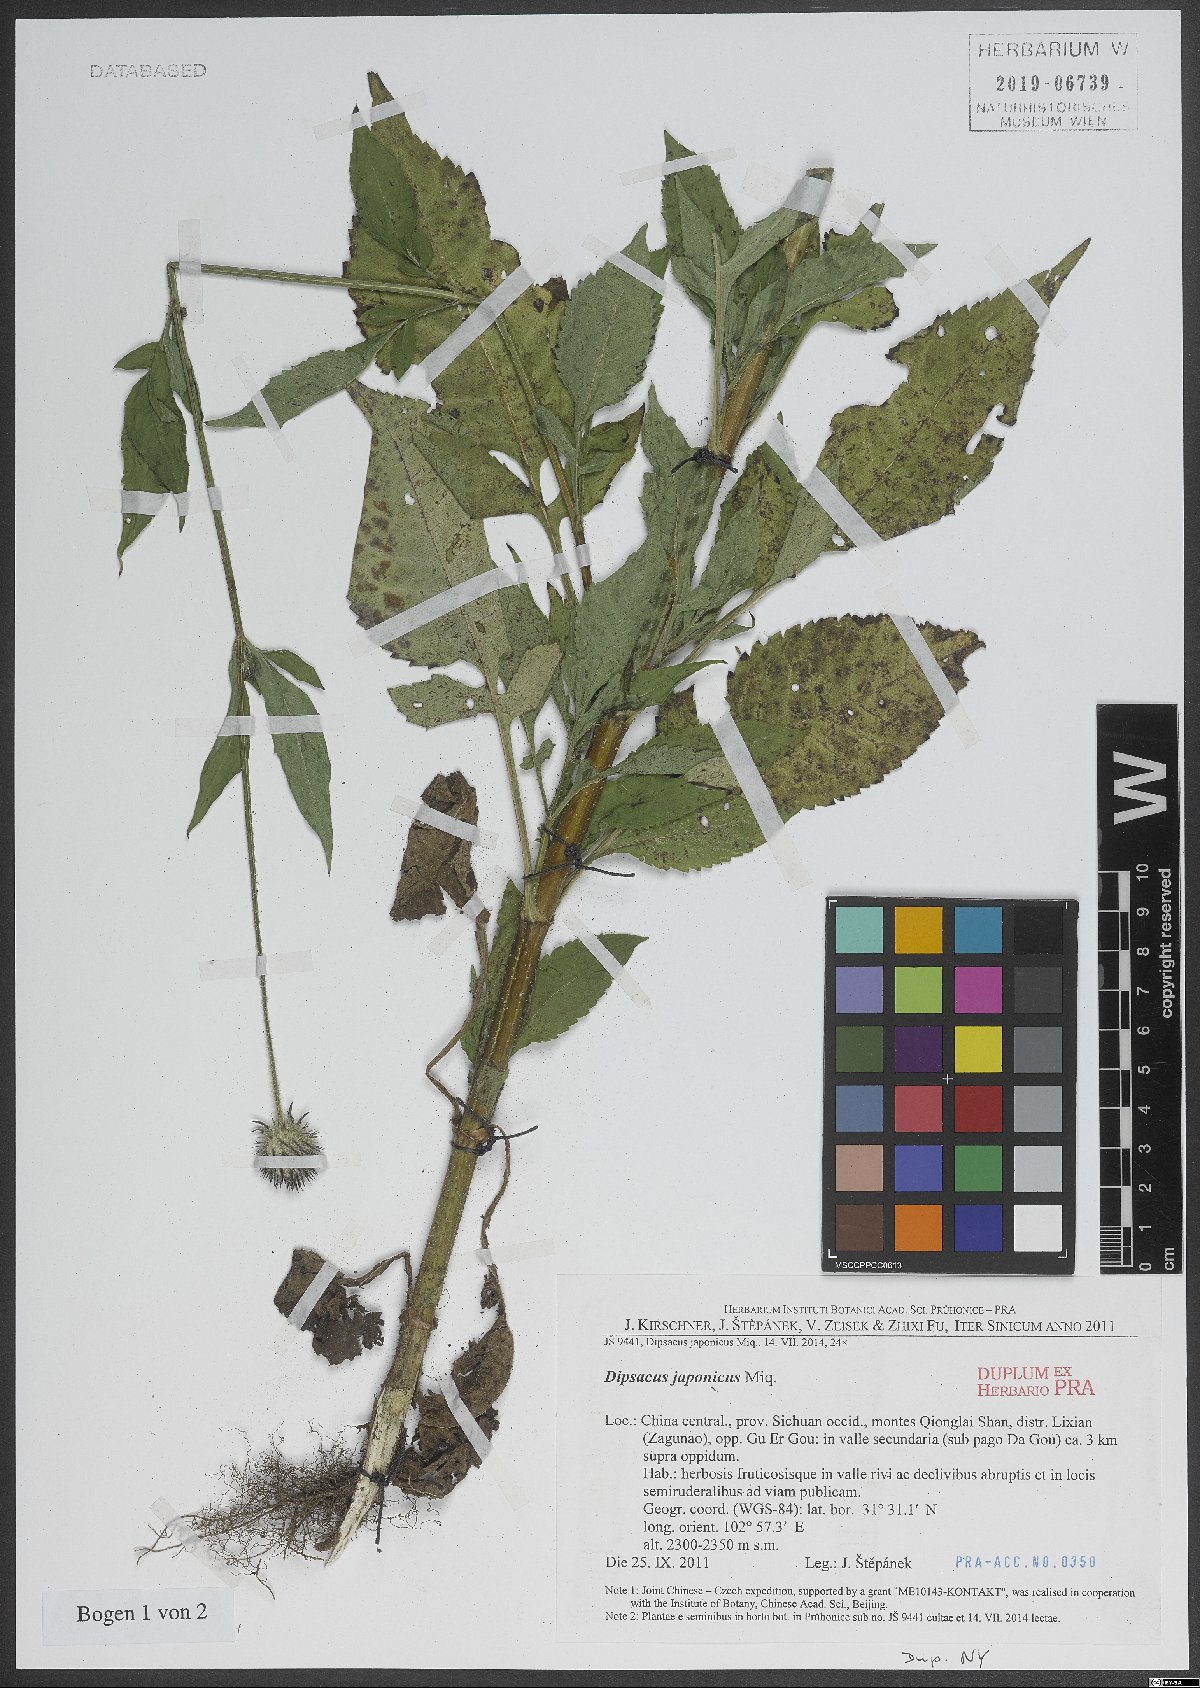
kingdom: Plantae
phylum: Tracheophyta
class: Magnoliopsida
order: Dipsacales
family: Caprifoliaceae
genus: Dipsacus
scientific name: Dipsacus
